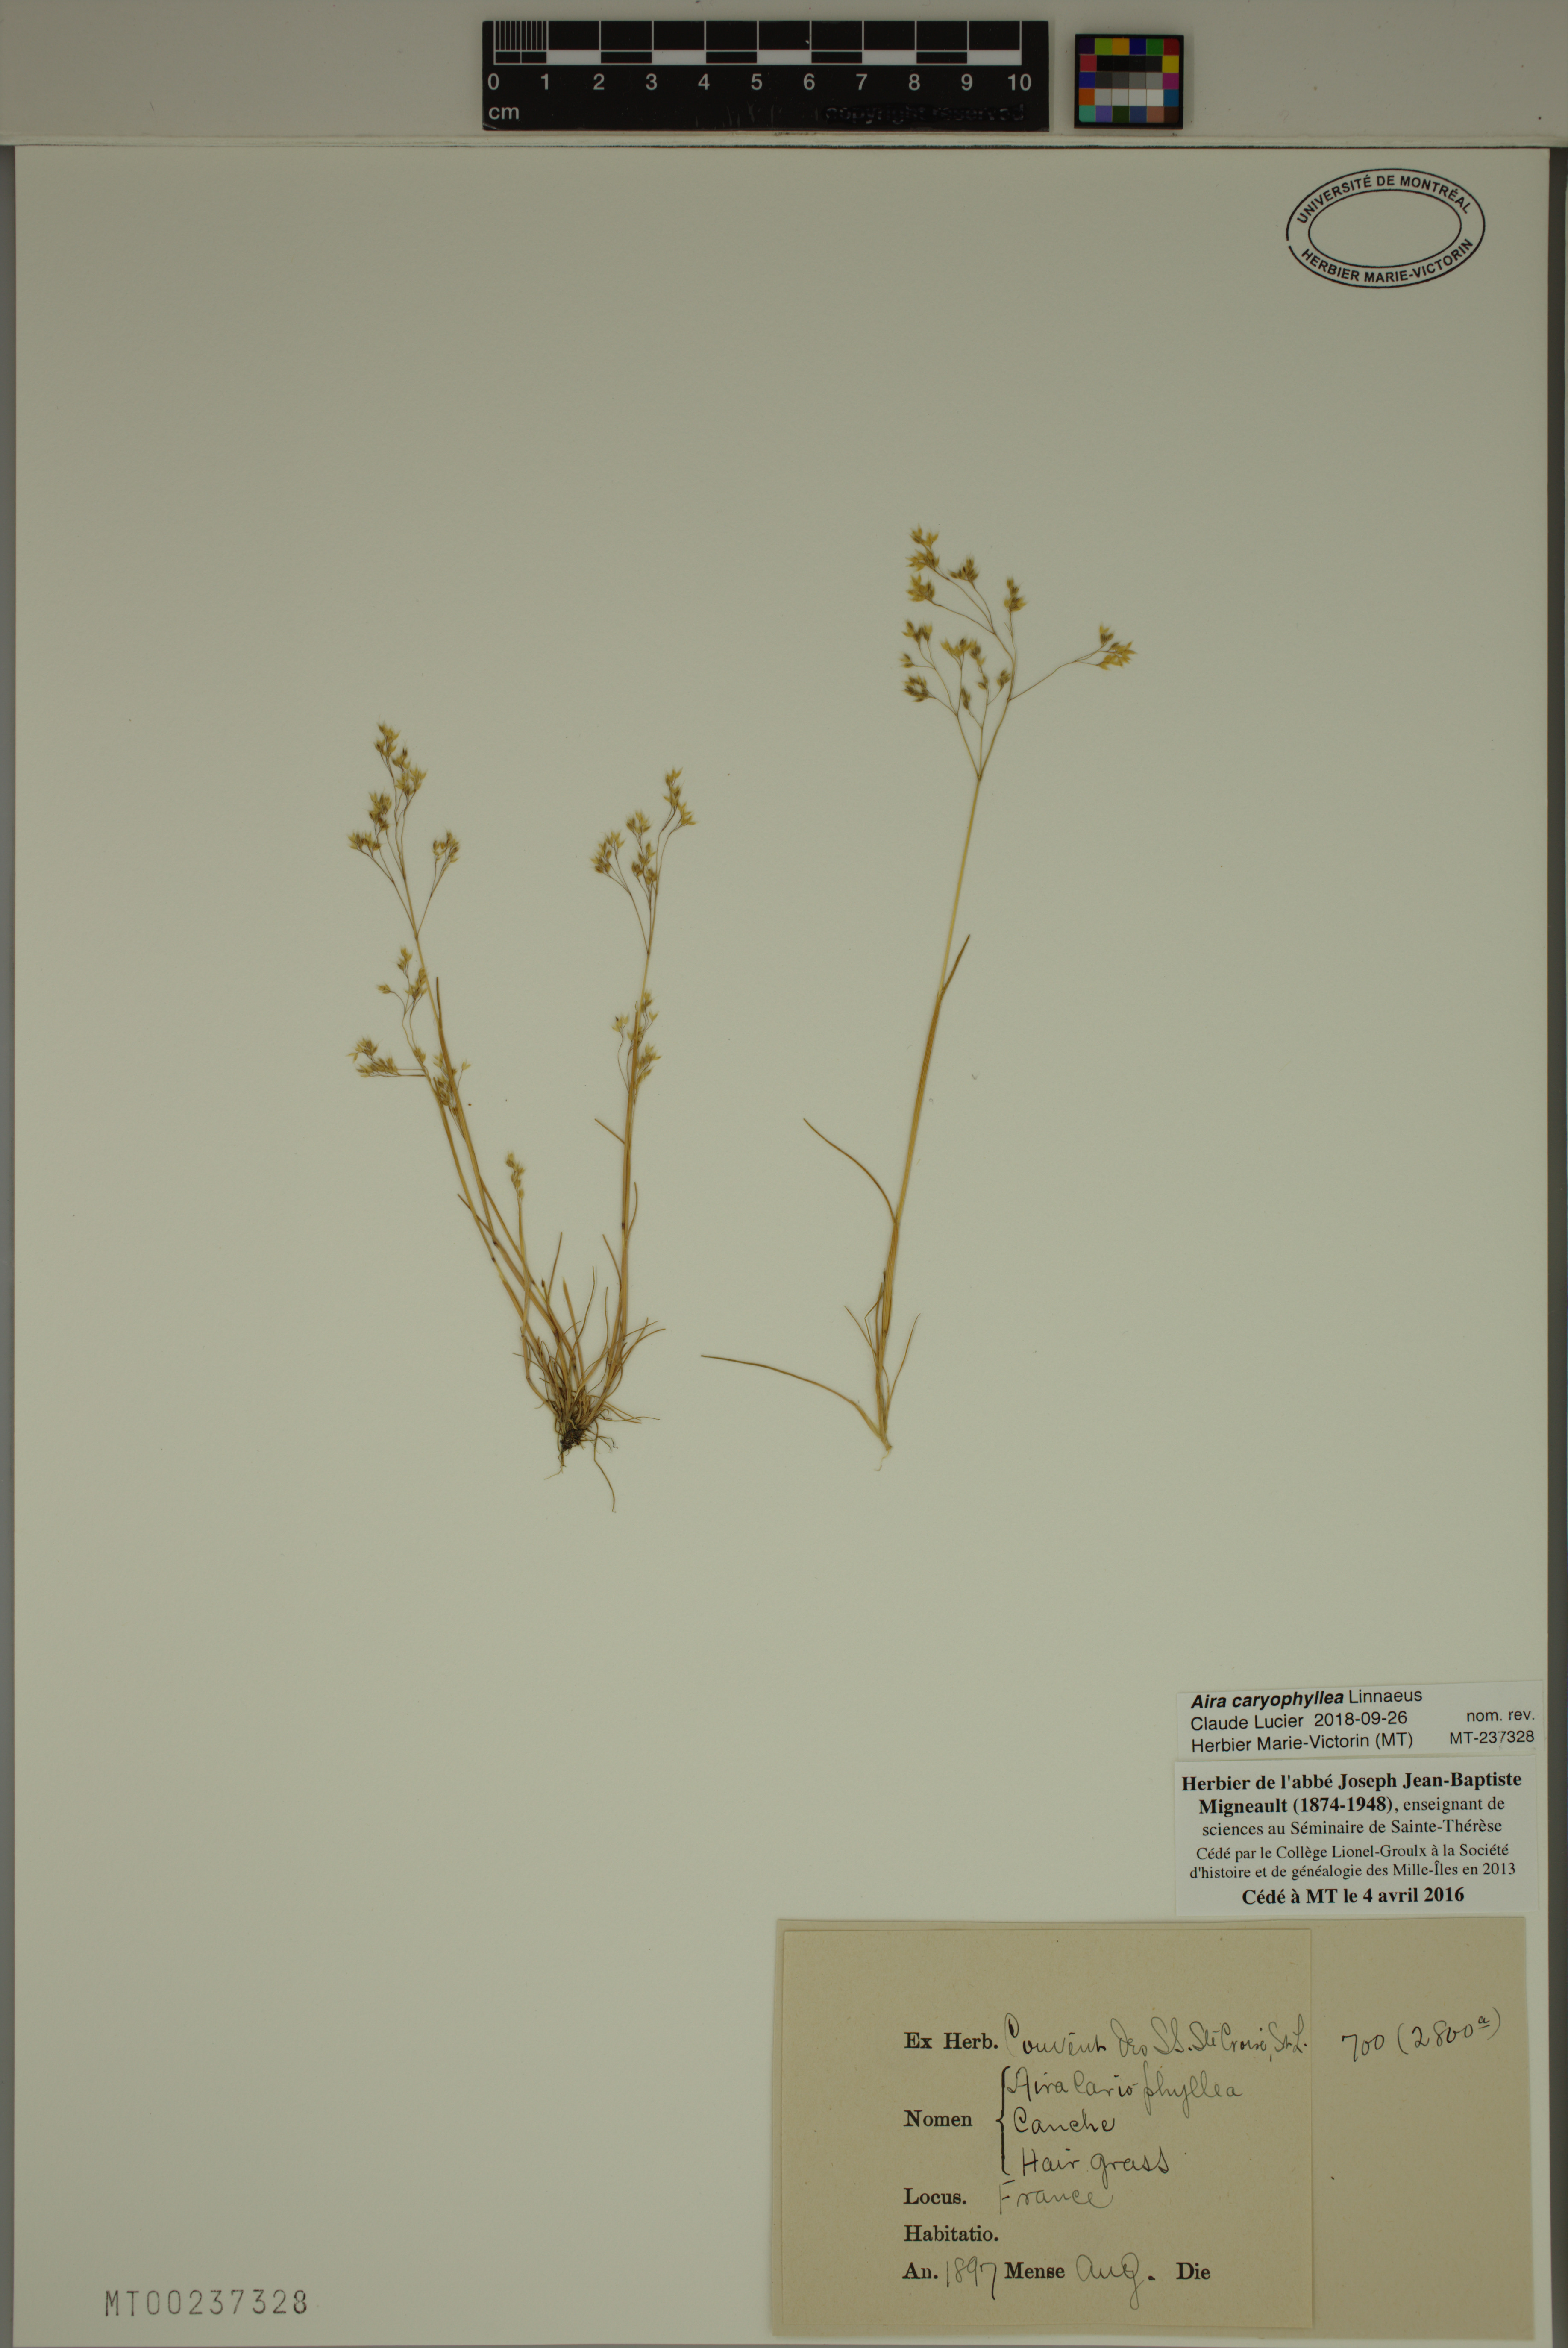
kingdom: Plantae
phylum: Tracheophyta
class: Liliopsida
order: Poales
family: Poaceae
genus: Aira
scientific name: Aira caryophyllea
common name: Silver hairgrass
